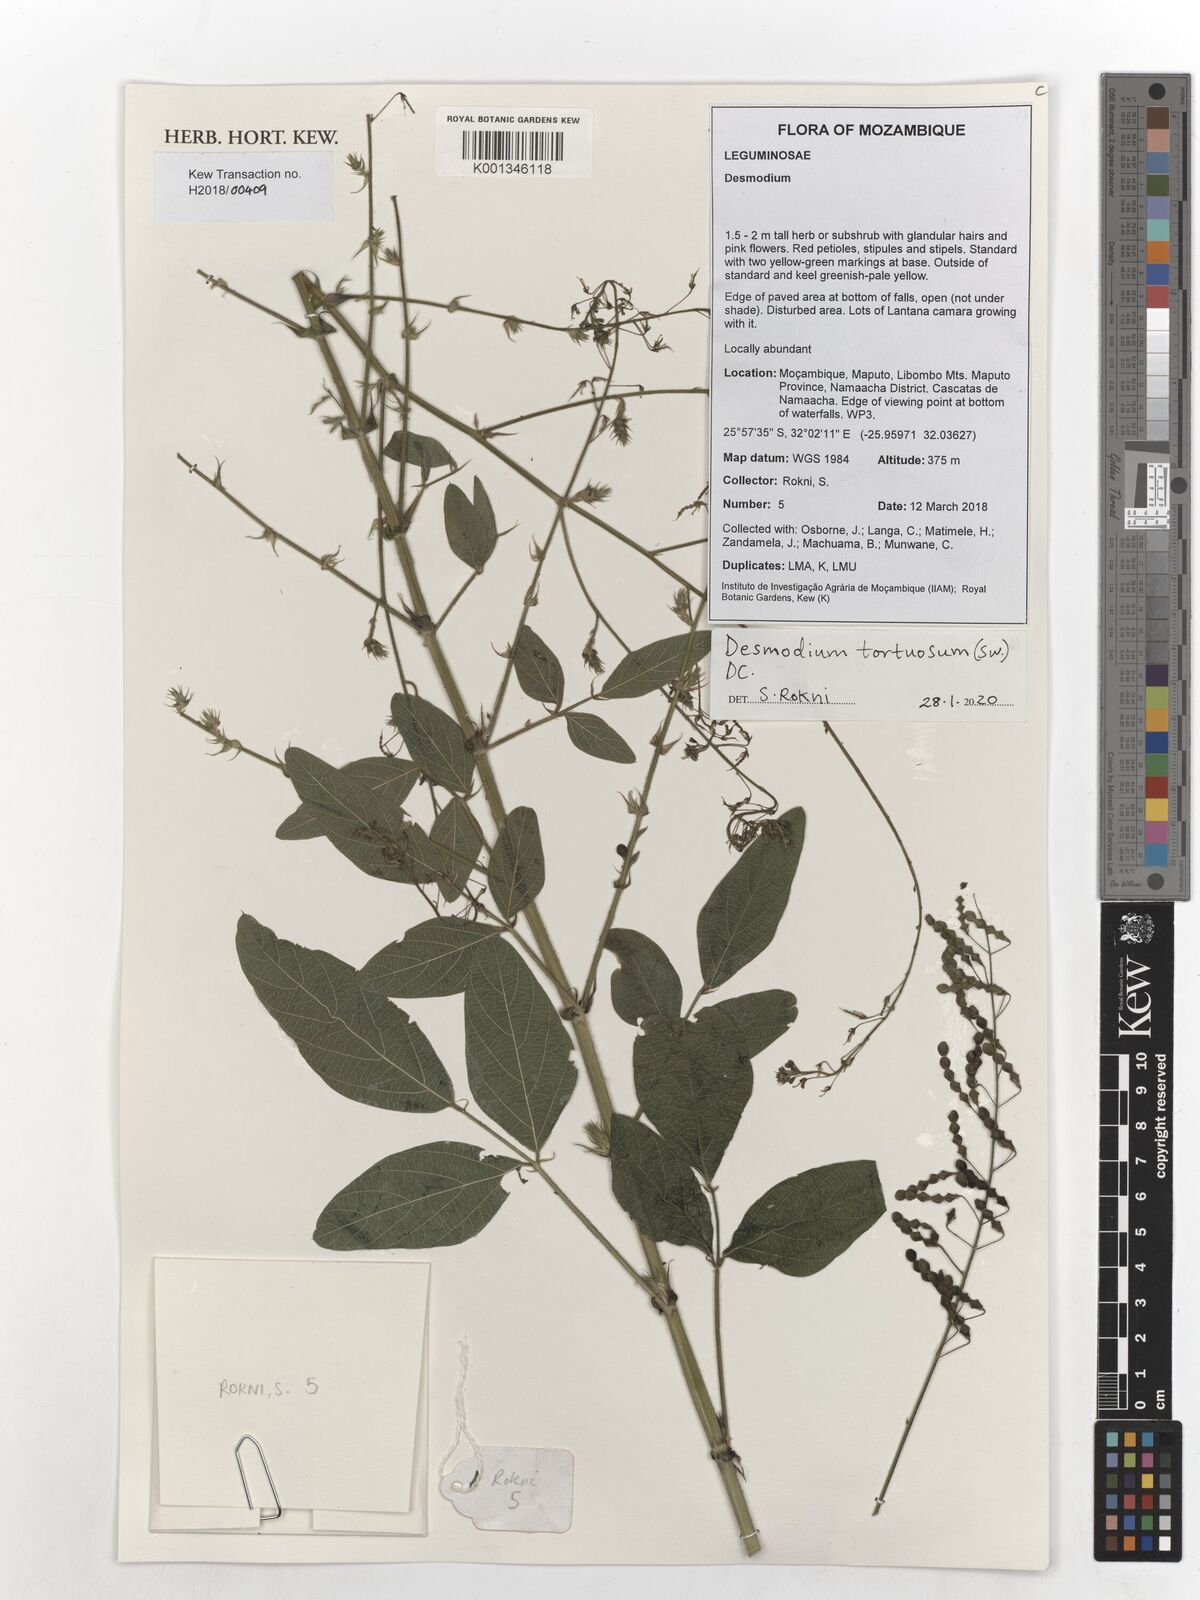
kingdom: Plantae
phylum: Tracheophyta
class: Magnoliopsida
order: Fabales
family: Fabaceae
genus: Desmodium
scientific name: Desmodium tortuosum
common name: Dixie ticktrefoil
